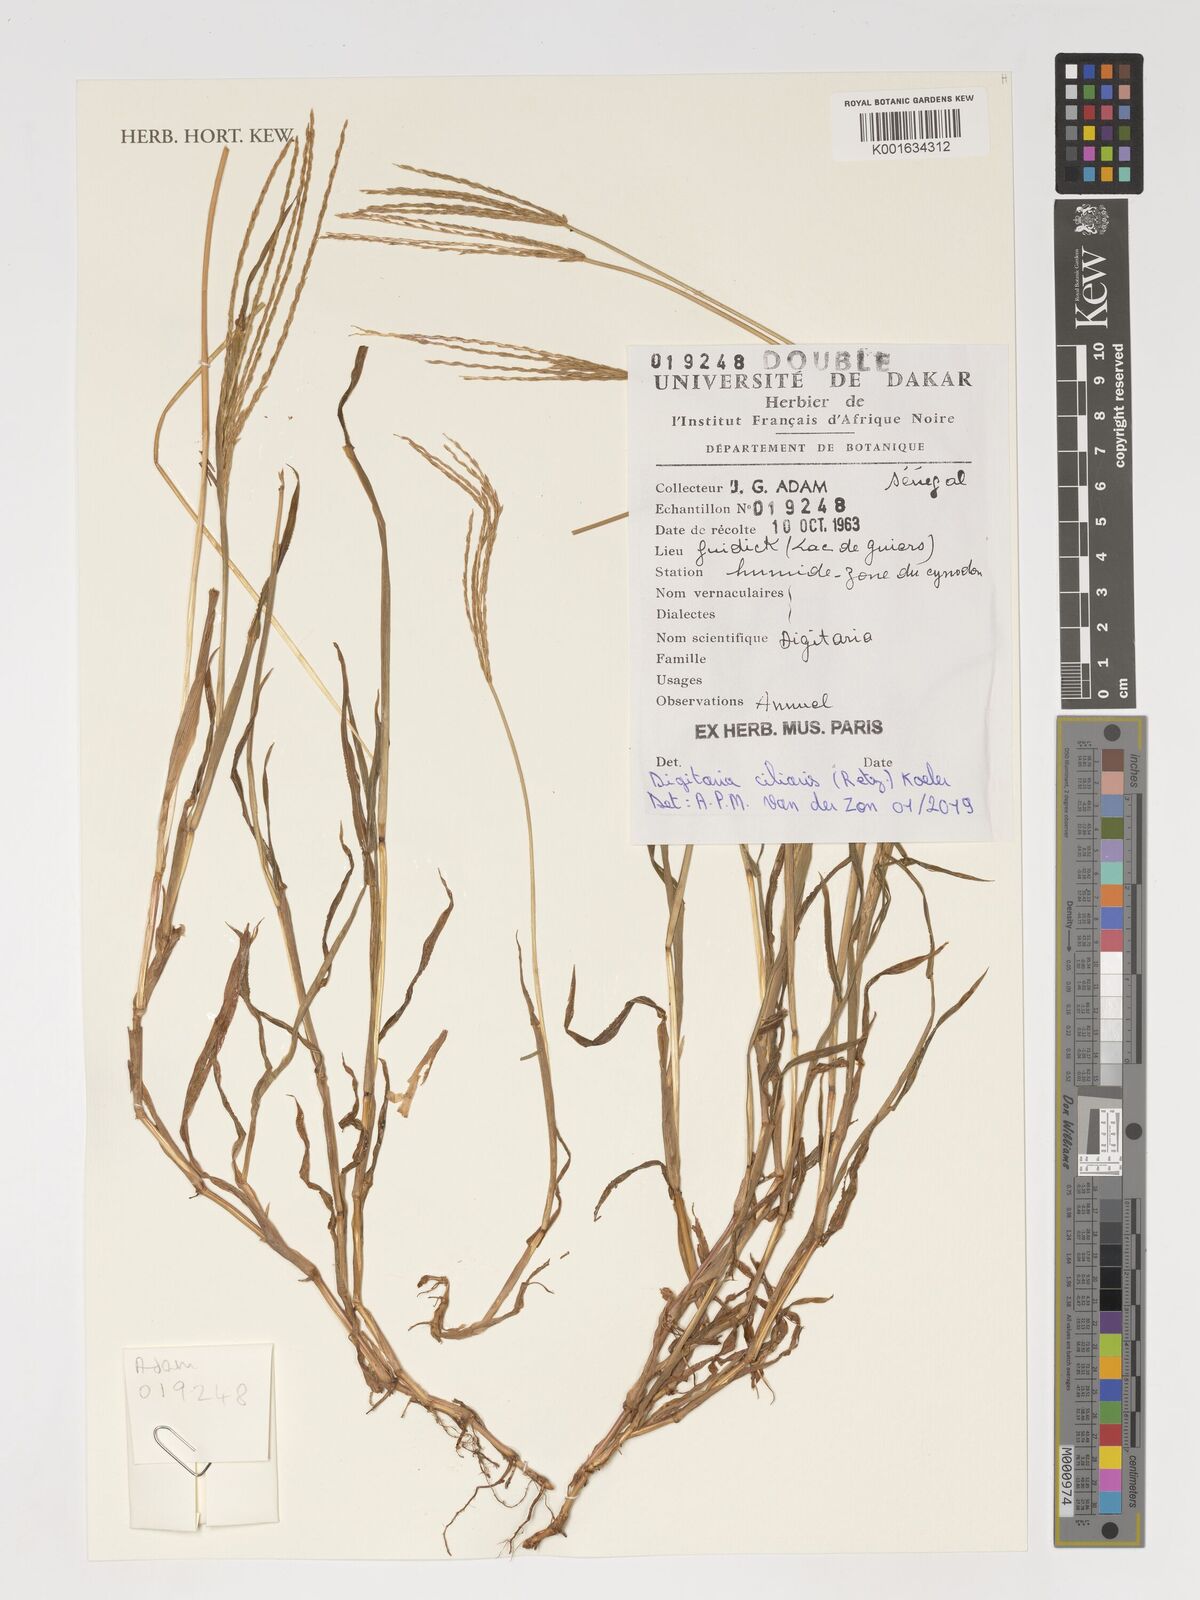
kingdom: Plantae
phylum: Tracheophyta
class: Liliopsida
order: Poales
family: Poaceae
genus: Digitaria
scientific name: Digitaria ciliaris
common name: Tropical finger-grass
